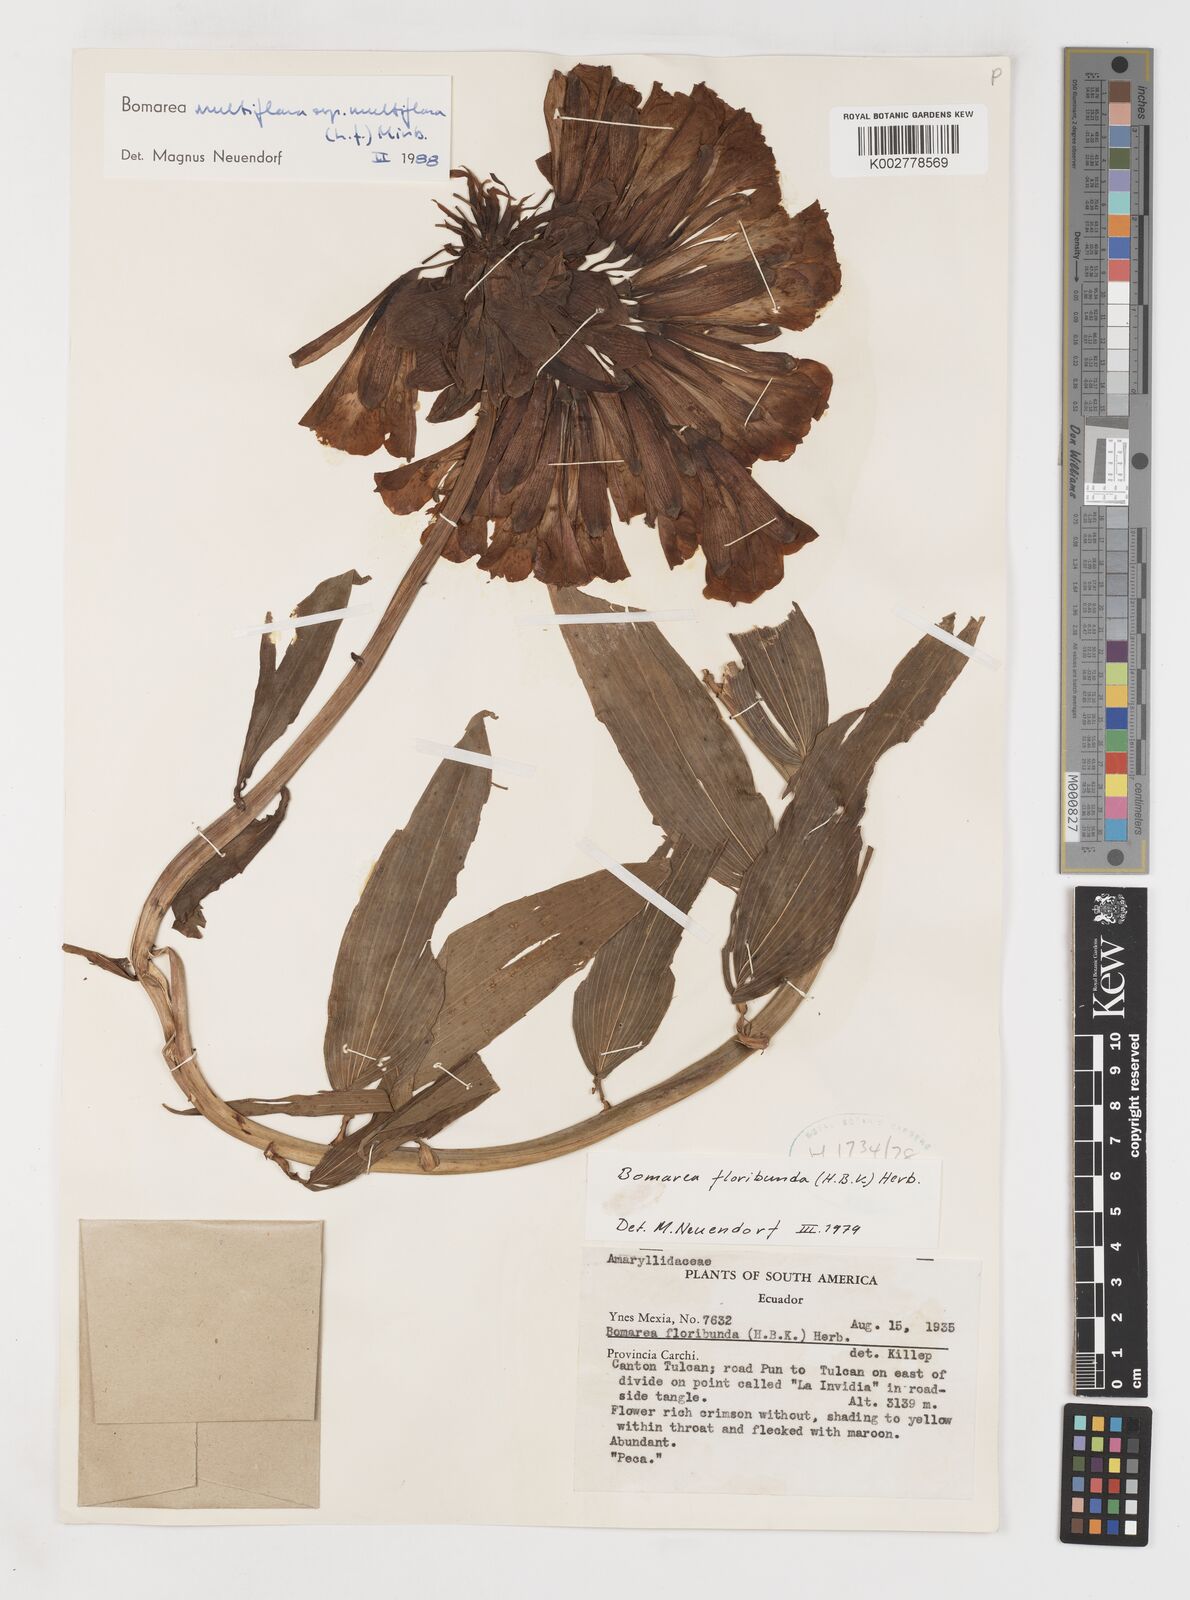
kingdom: Plantae
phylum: Tracheophyta
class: Liliopsida
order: Liliales
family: Alstroemeriaceae
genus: Bomarea
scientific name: Bomarea multiflora
